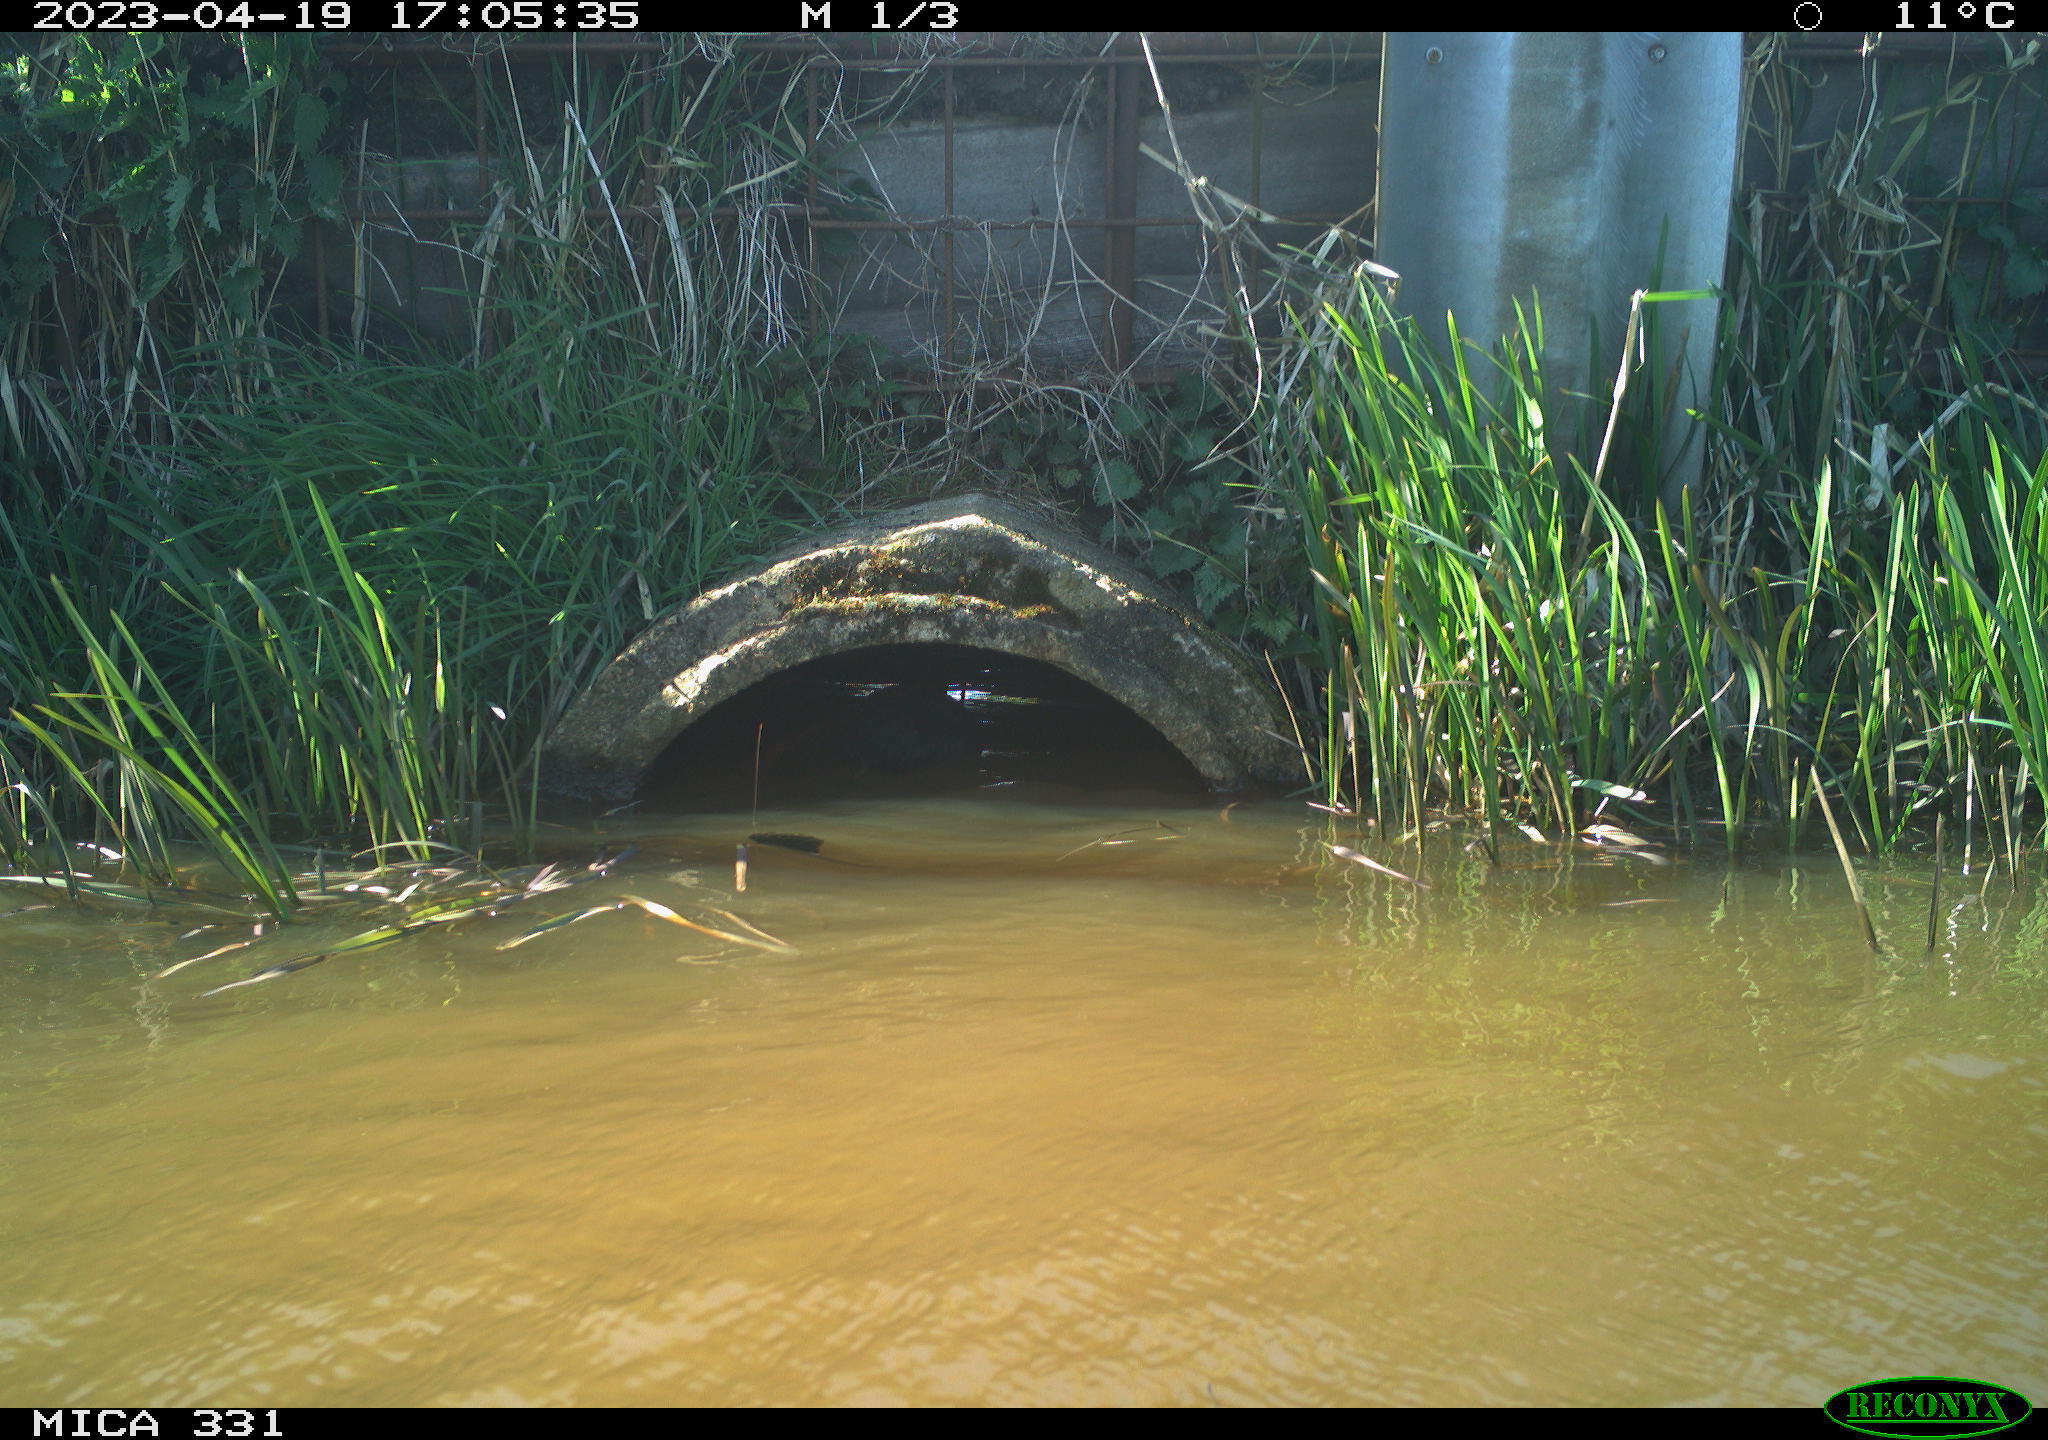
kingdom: Animalia
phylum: Chordata
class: Aves
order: Gruiformes
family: Rallidae
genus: Gallinula
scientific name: Gallinula chloropus
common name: Common moorhen
